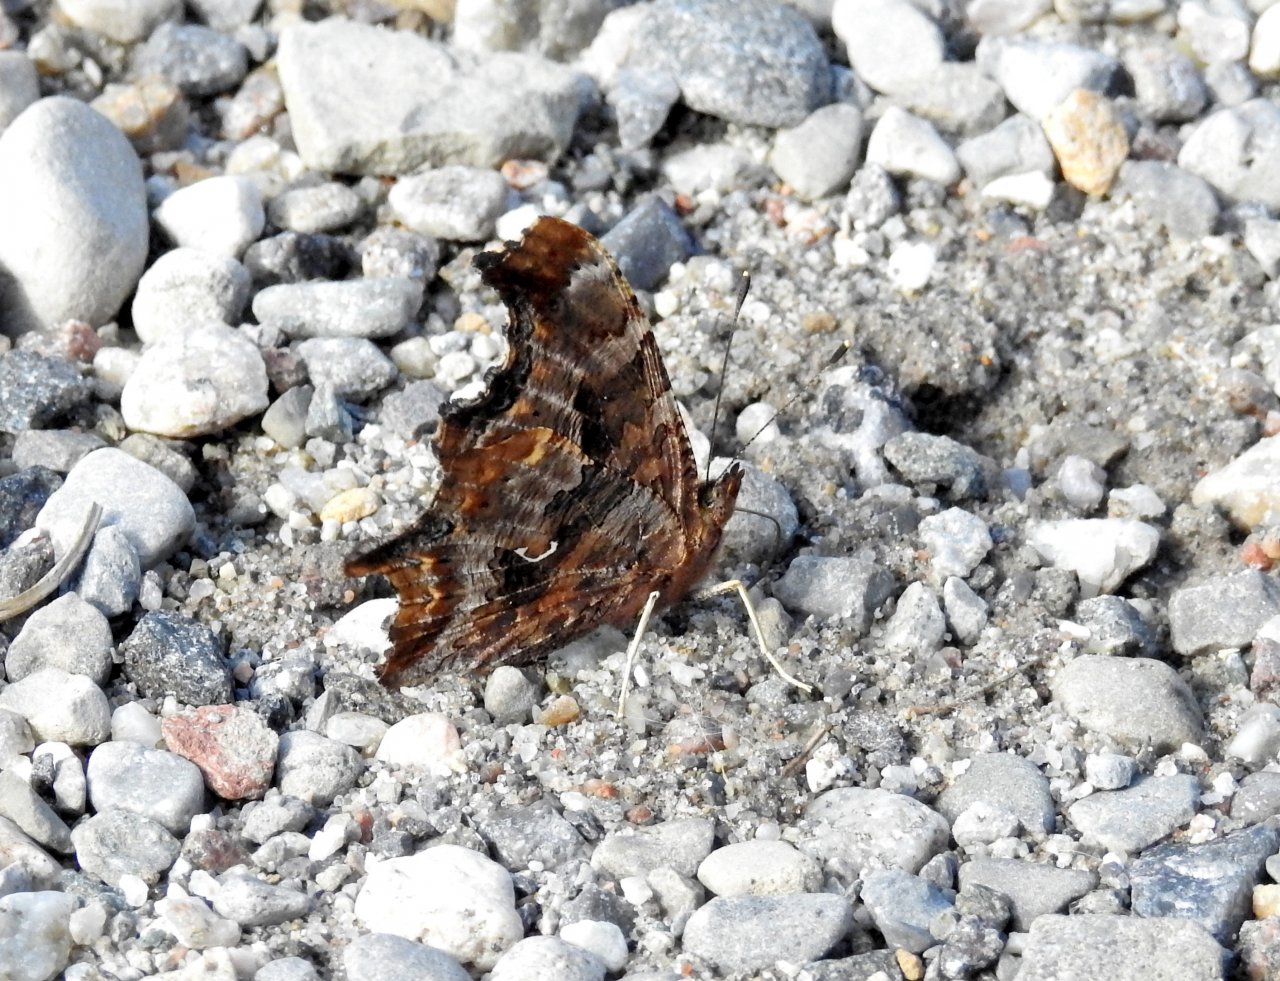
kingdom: Animalia
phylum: Arthropoda
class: Insecta
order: Lepidoptera
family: Nymphalidae
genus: Polygonia
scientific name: Polygonia comma
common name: Eastern Comma
